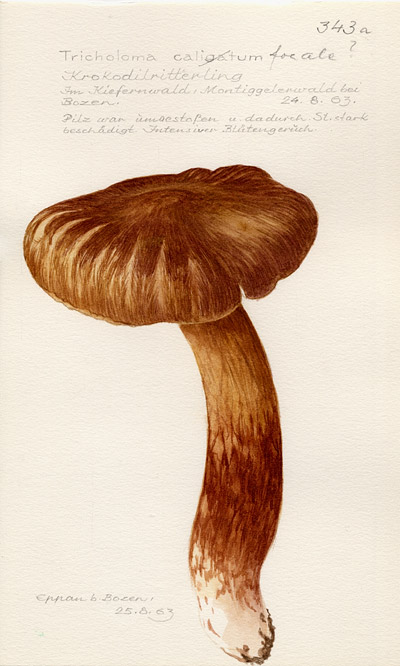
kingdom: Fungi
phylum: Basidiomycota
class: Agaricomycetes
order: Agaricales
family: Tricholomataceae
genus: Tricholoma
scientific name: Tricholoma focale
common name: Booted knight
